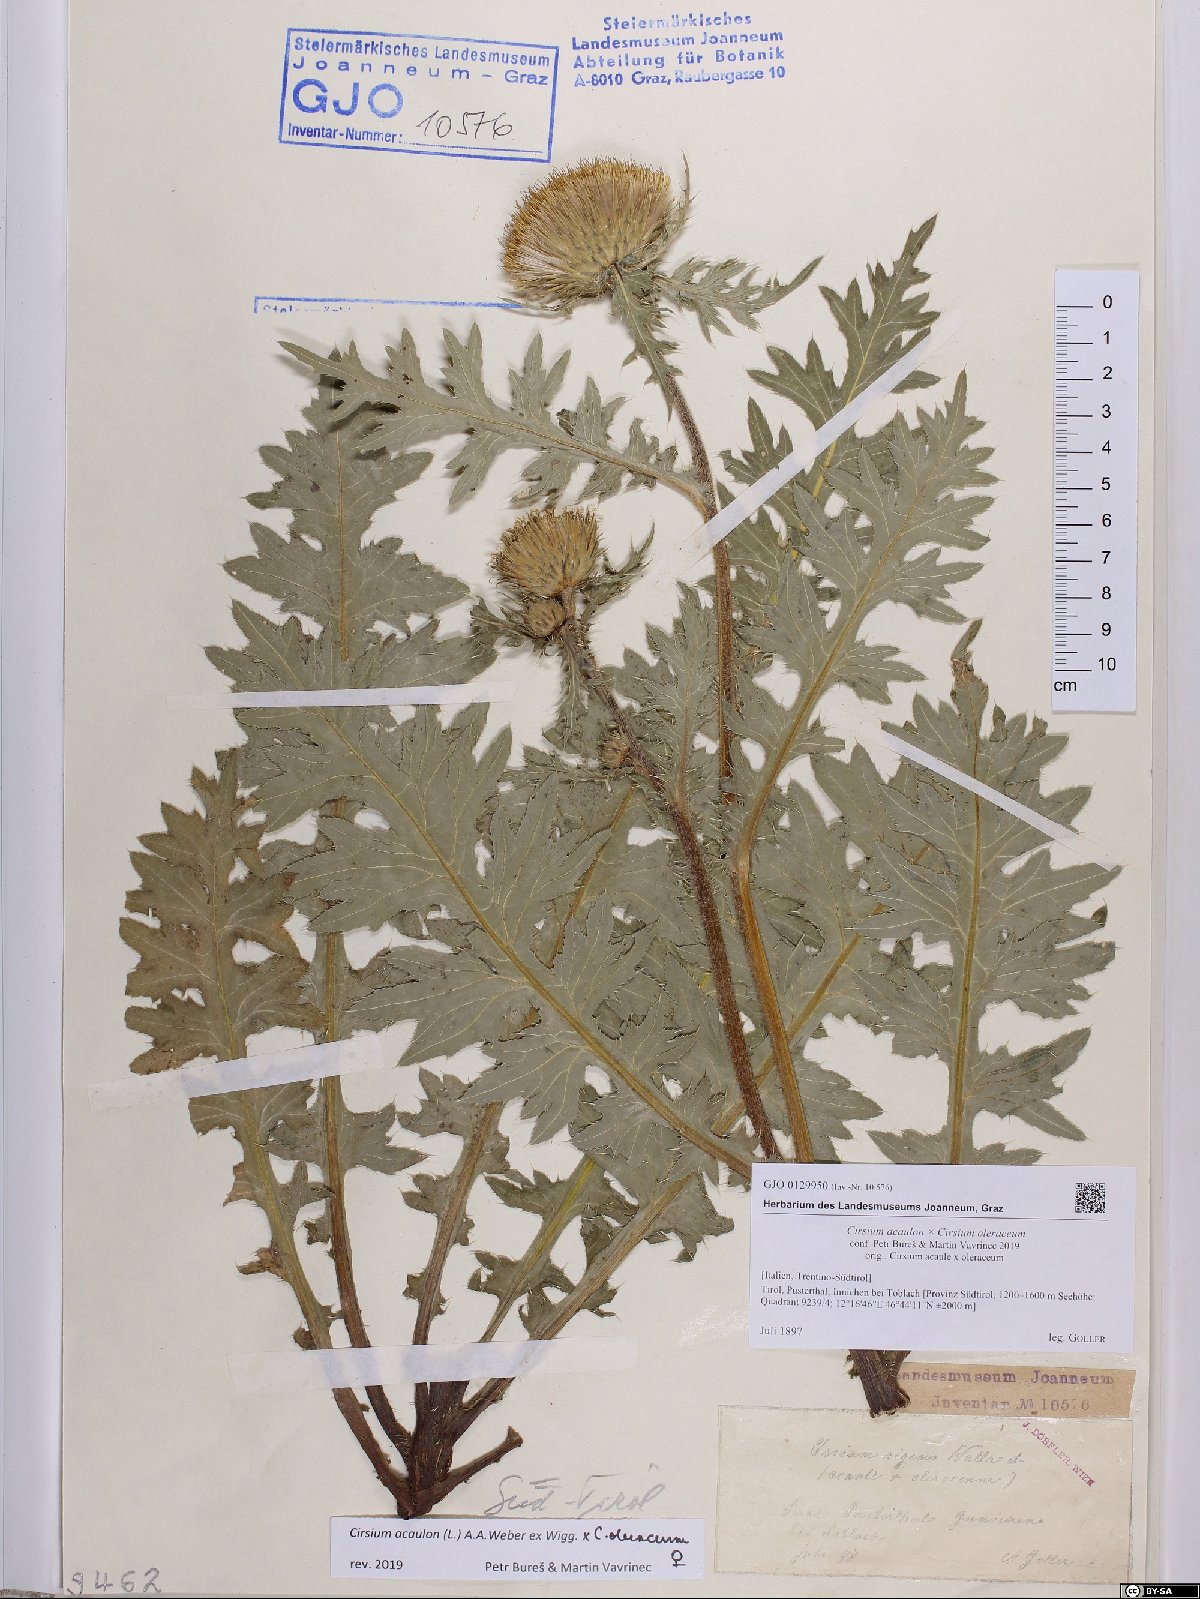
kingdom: Plantae
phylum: Tracheophyta
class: Magnoliopsida
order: Asterales
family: Asteraceae
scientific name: Asteraceae
